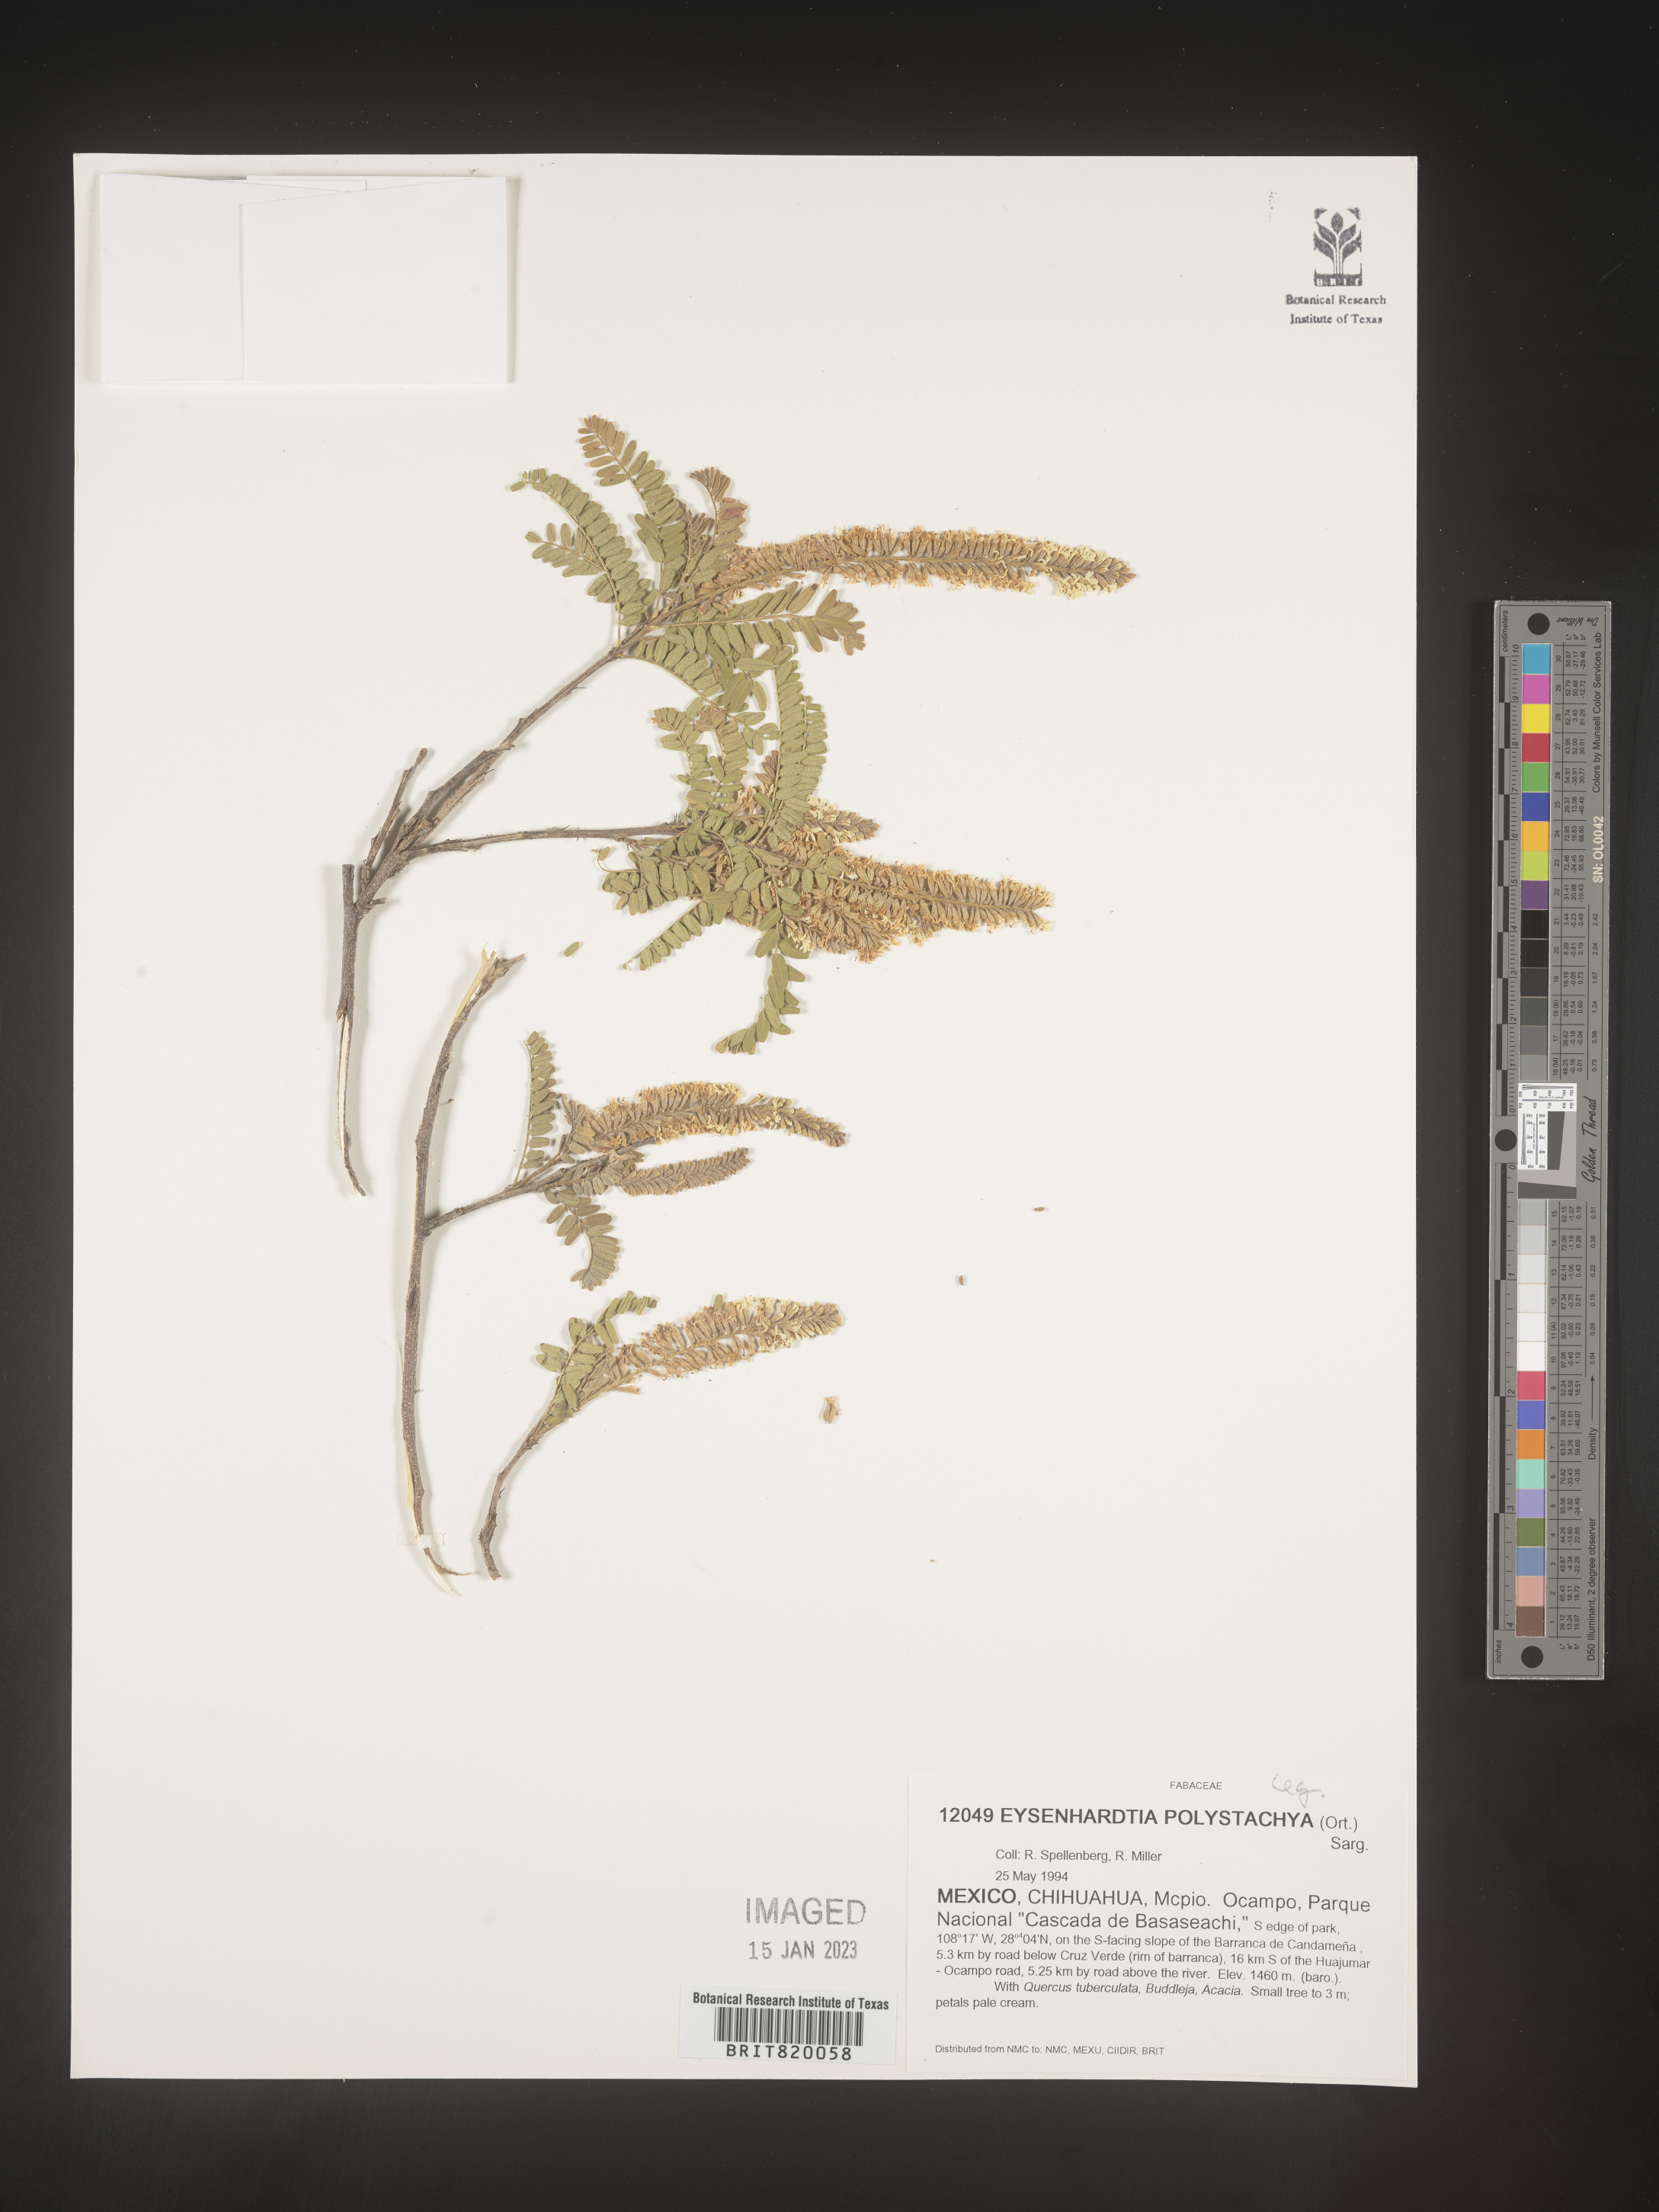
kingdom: Plantae
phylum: Tracheophyta
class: Magnoliopsida
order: Fabales
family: Fabaceae
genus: Eysenhardtia
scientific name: Eysenhardtia
